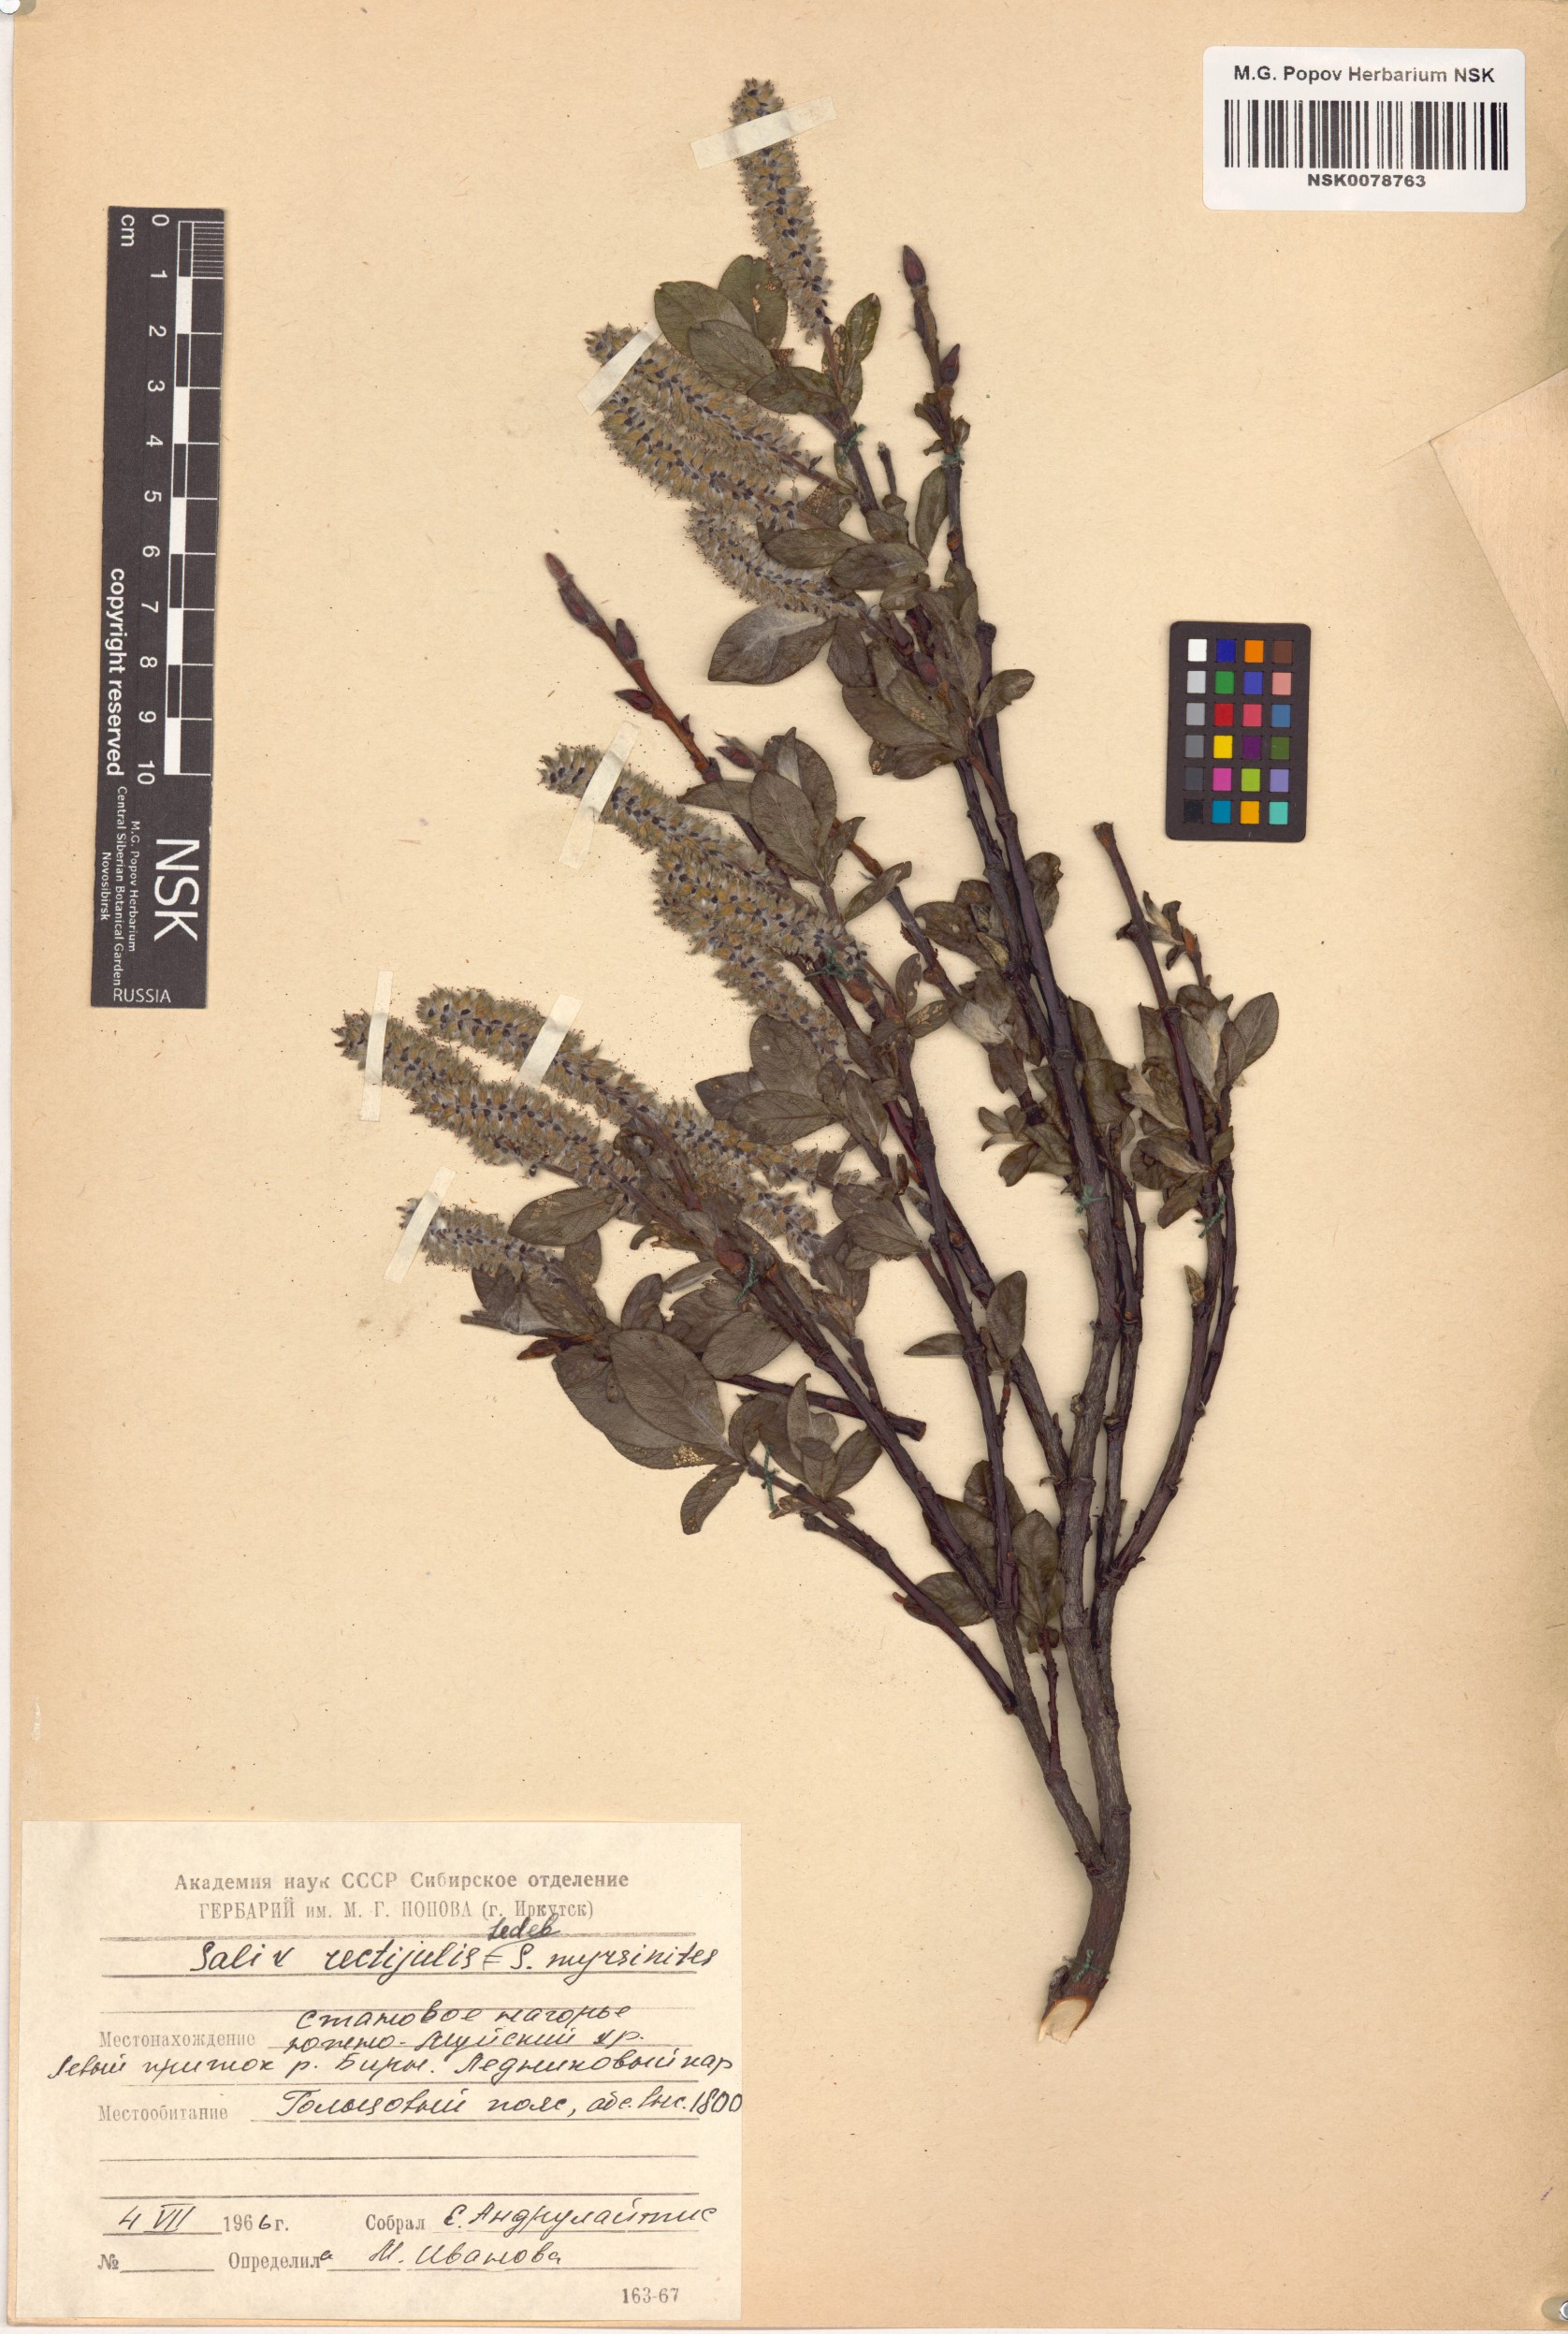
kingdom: Plantae
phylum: Tracheophyta
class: Magnoliopsida
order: Malpighiales
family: Salicaceae
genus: Salix
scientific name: Salix rectijulis
